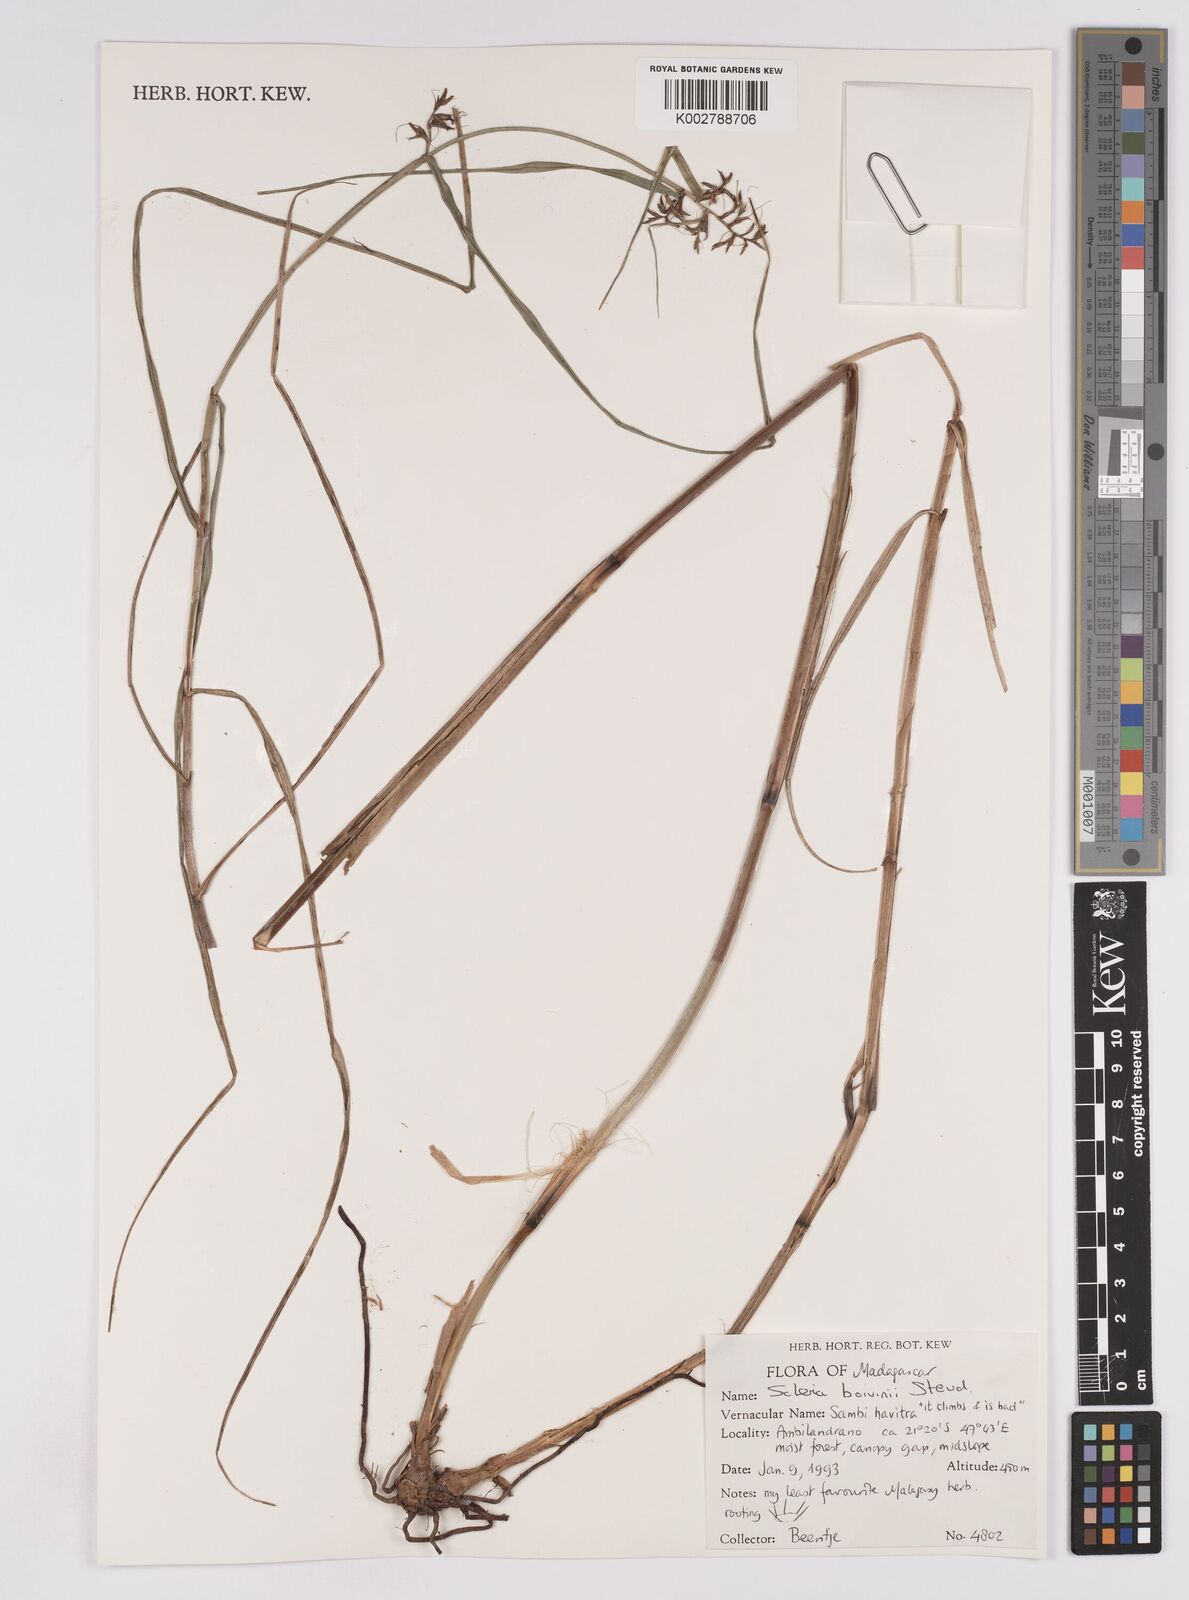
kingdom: Plantae
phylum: Tracheophyta
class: Liliopsida
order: Poales
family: Cyperaceae
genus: Scleria
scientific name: Scleria boivinii
